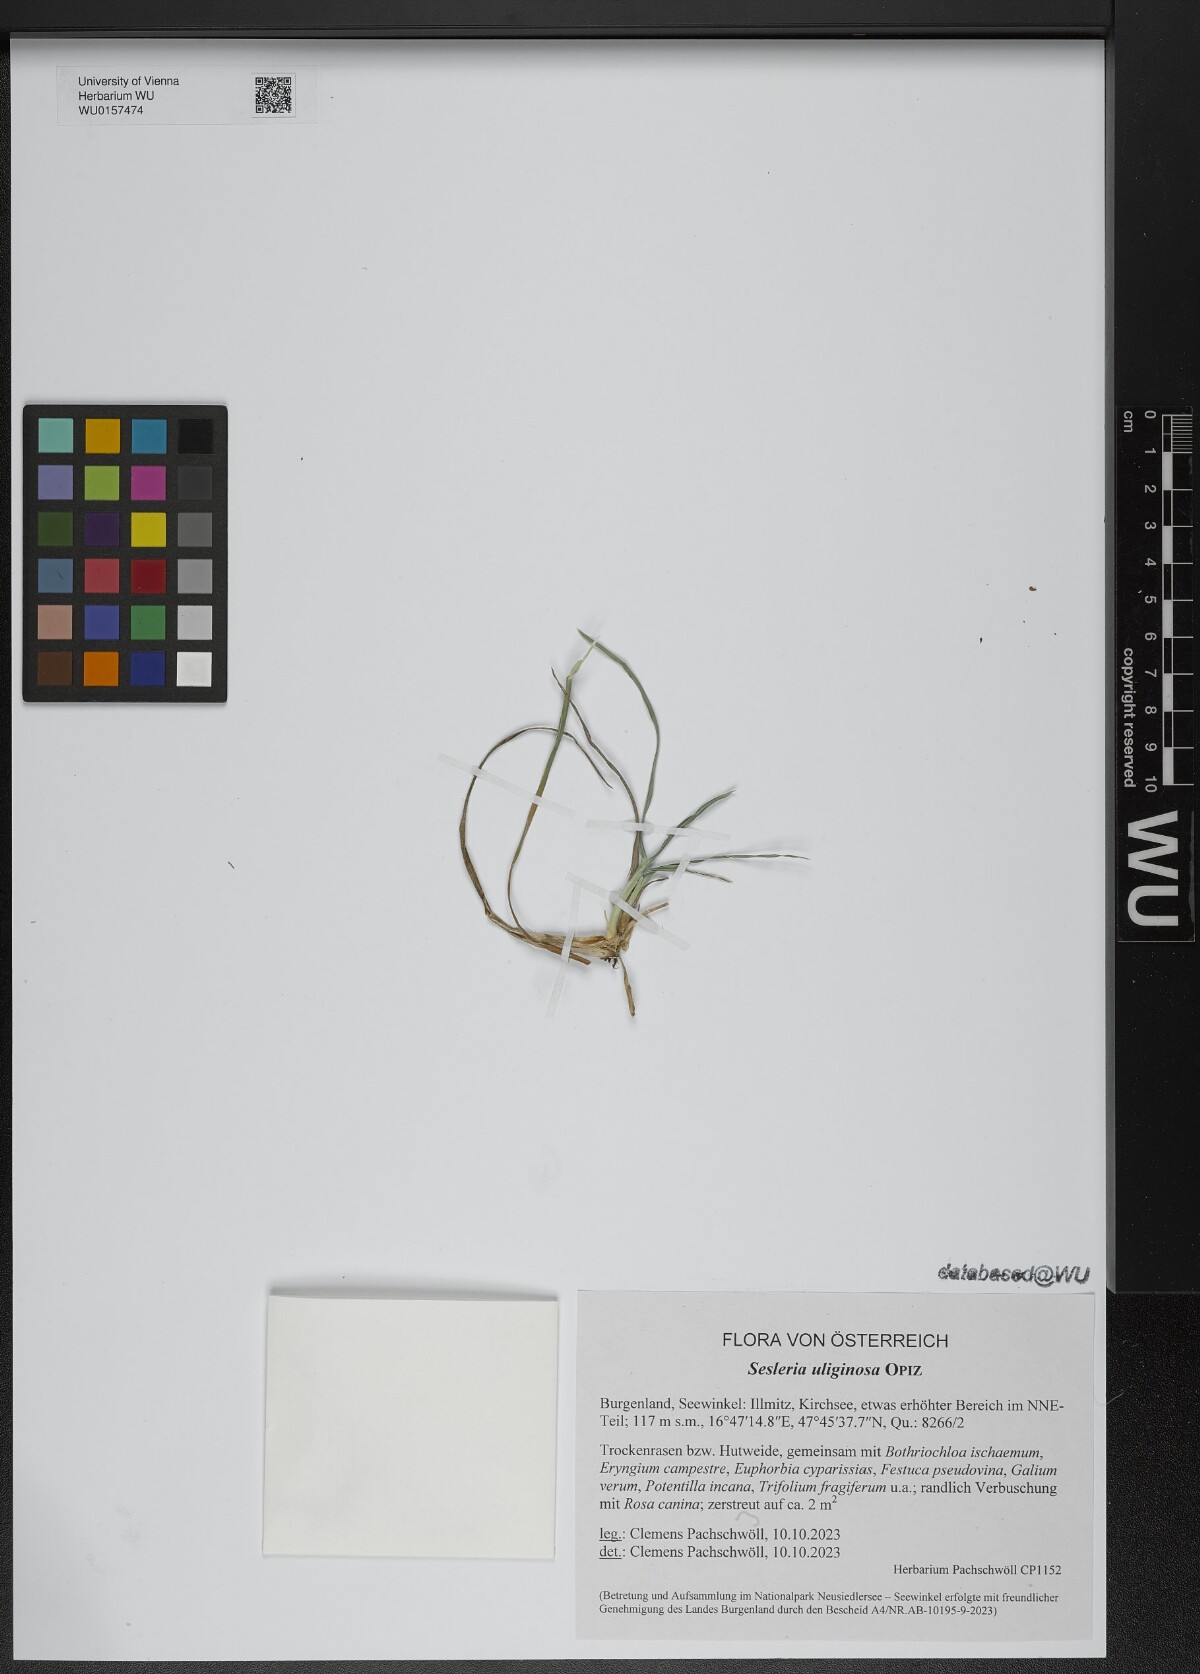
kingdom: Plantae
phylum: Tracheophyta
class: Liliopsida
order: Poales
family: Poaceae
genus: Sesleria
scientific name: Sesleria uliginosa
